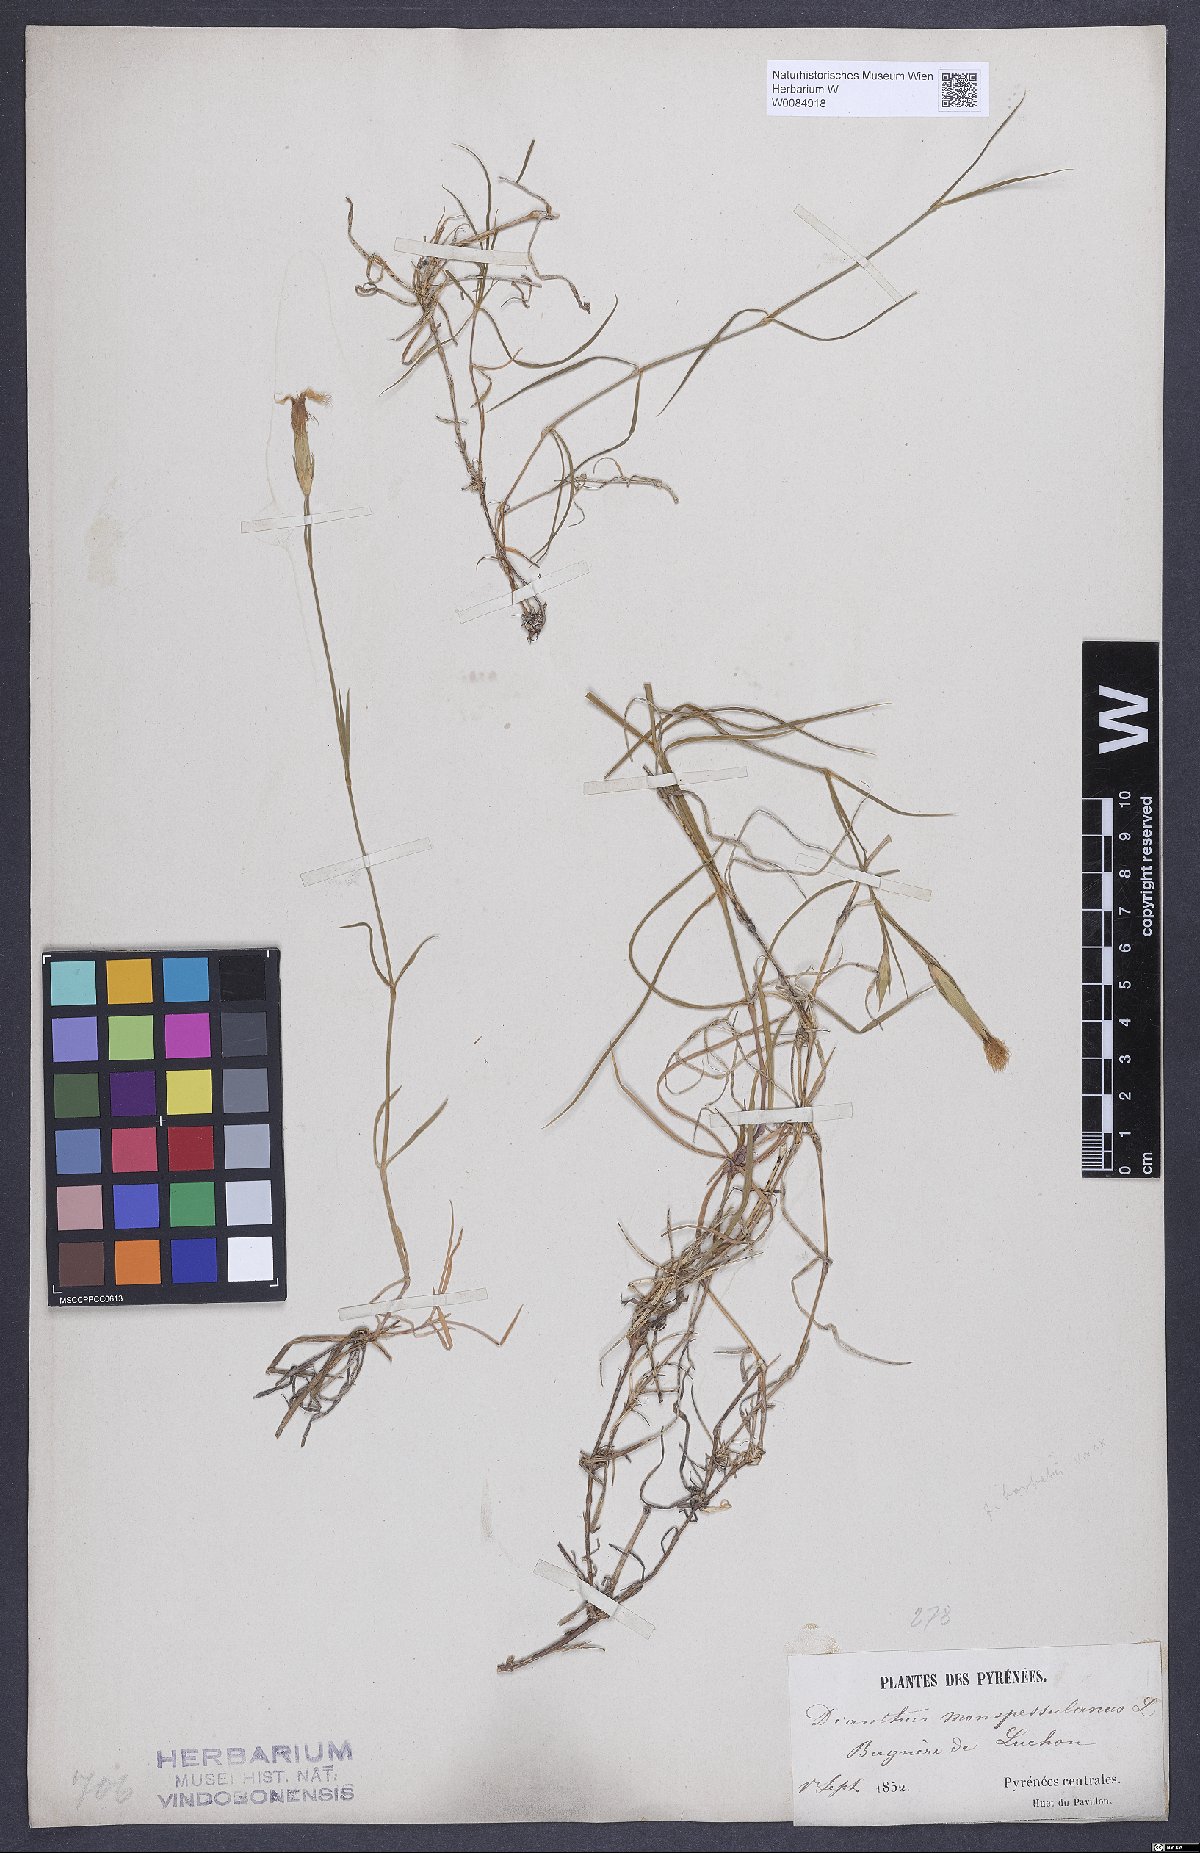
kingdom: Plantae
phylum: Tracheophyta
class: Magnoliopsida
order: Caryophyllales
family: Caryophyllaceae
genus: Dianthus
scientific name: Dianthus hyssopifolius
